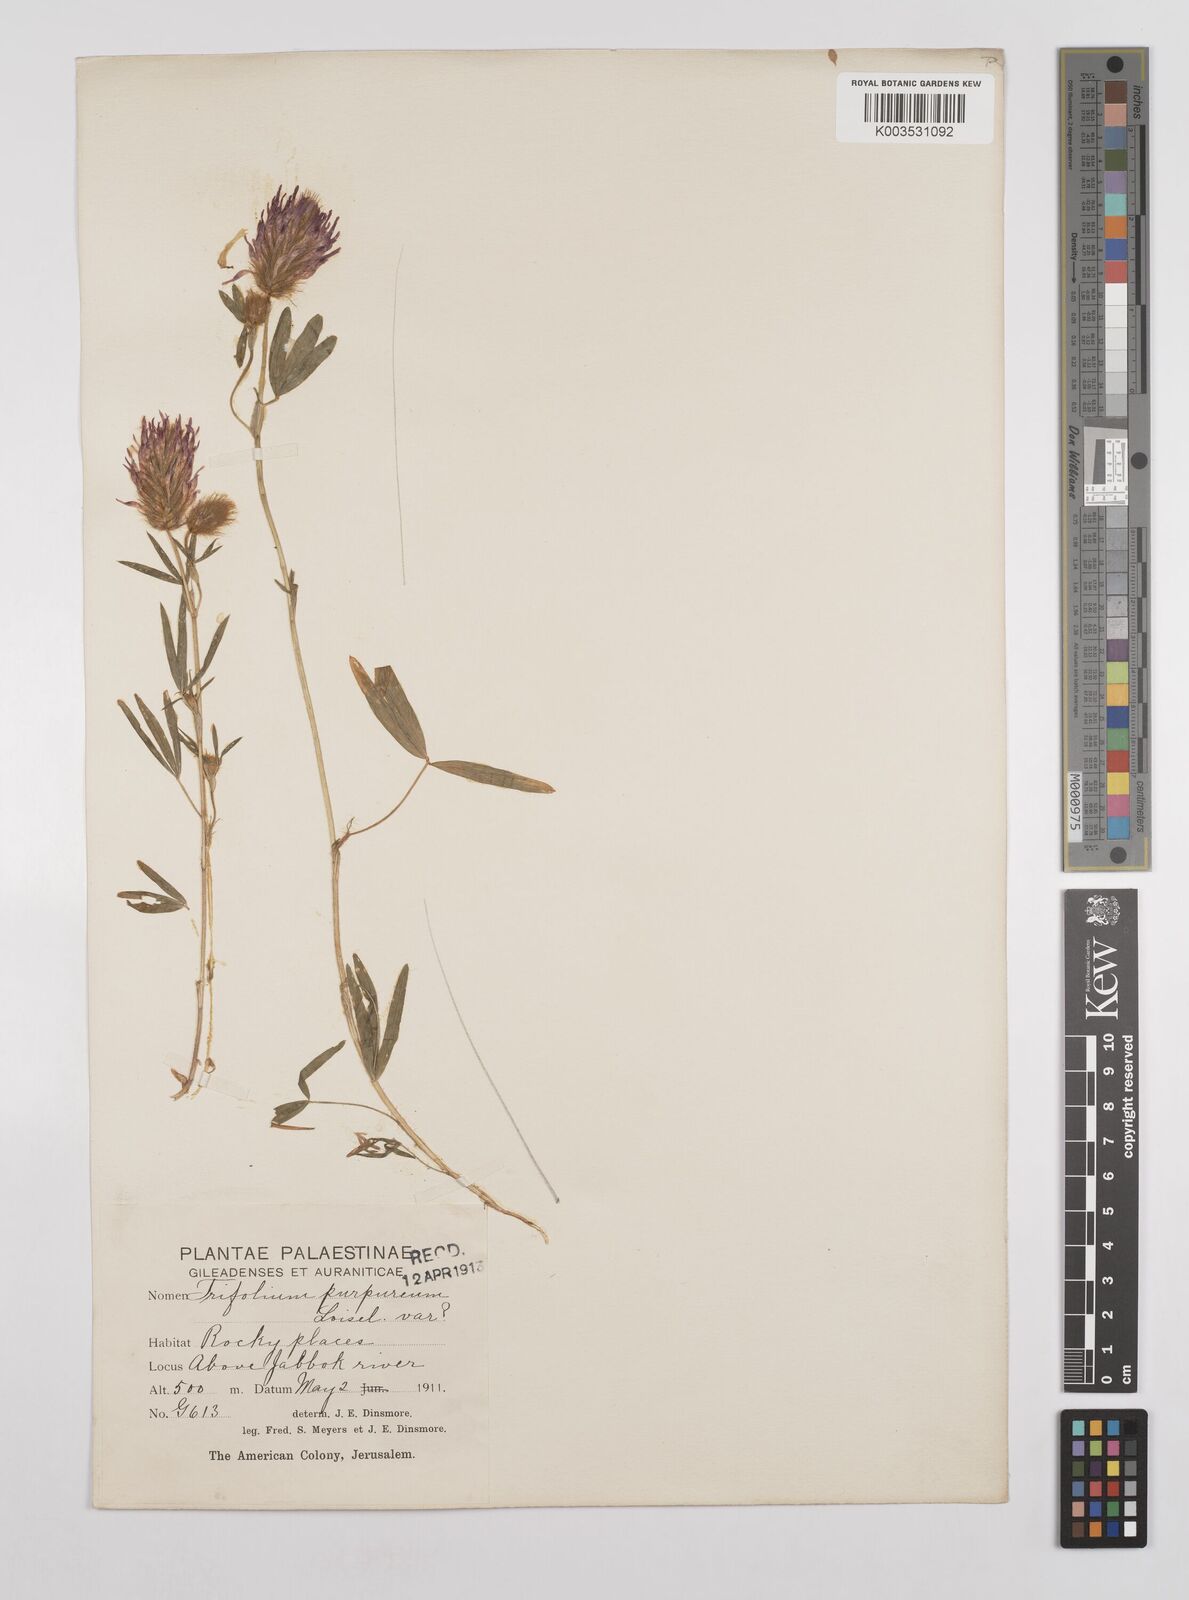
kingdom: Plantae
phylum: Tracheophyta
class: Magnoliopsida
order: Fabales
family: Fabaceae
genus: Trifolium
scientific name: Trifolium purpureum
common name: Purple clover
